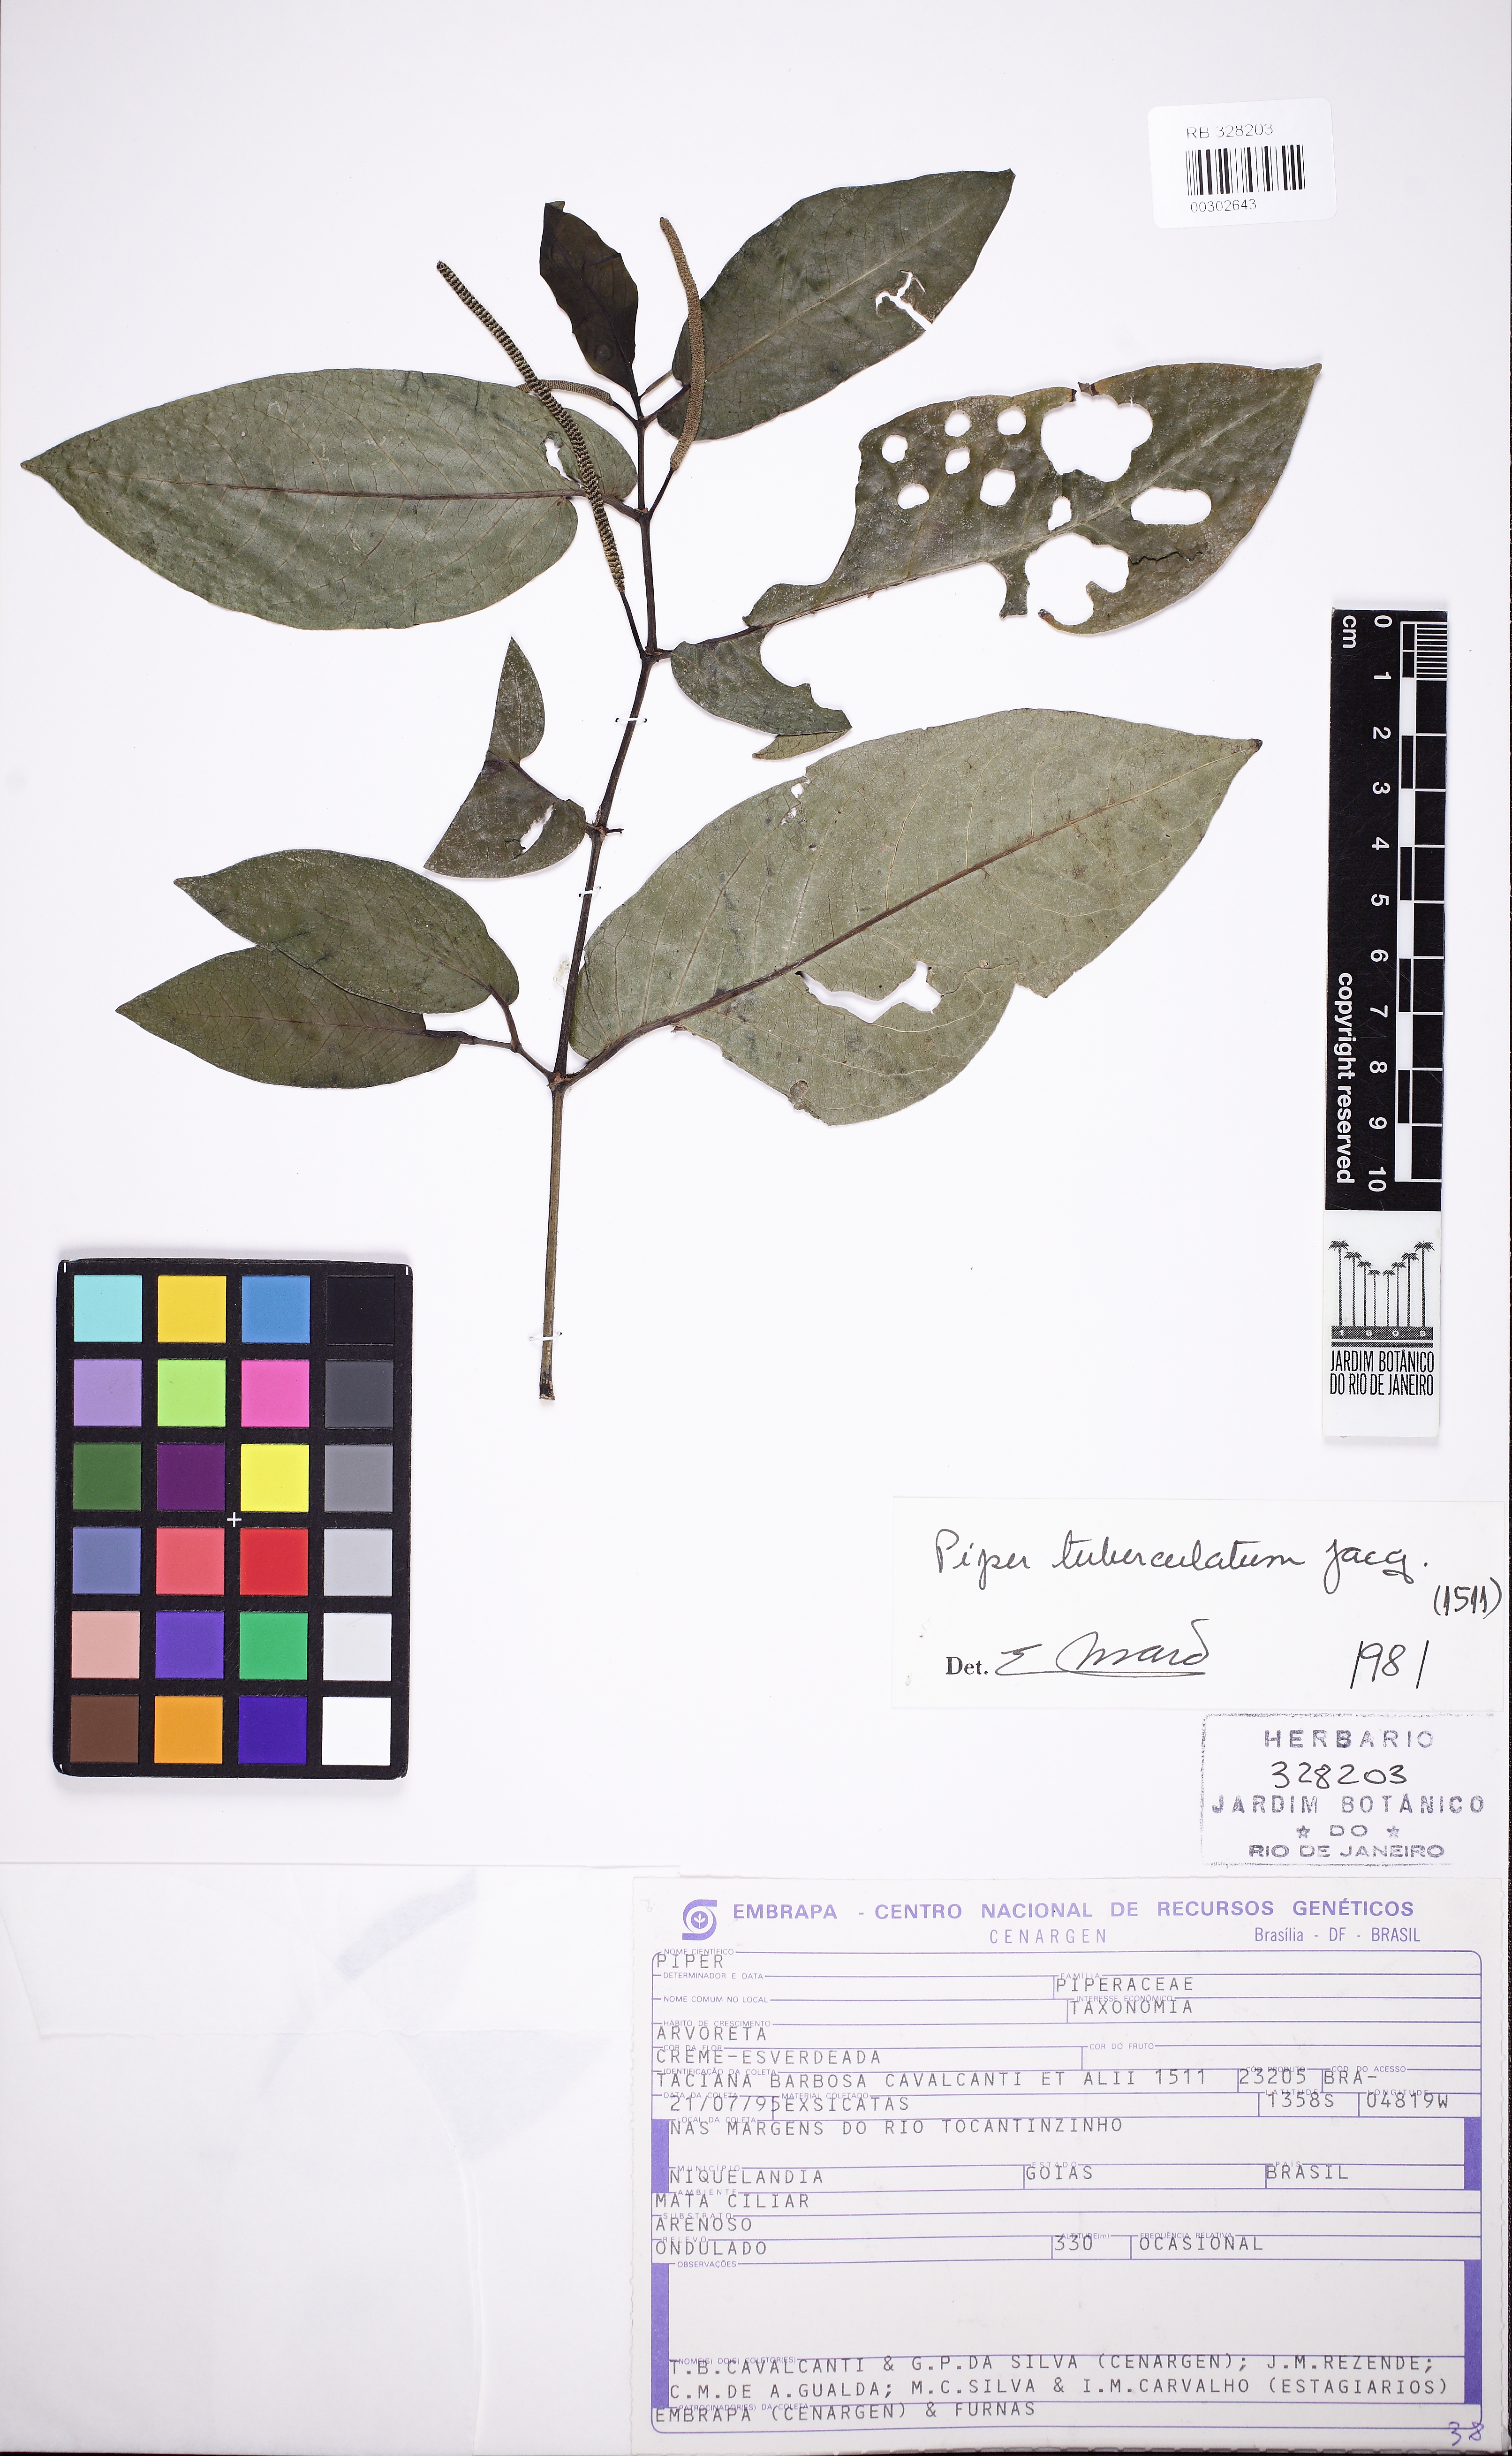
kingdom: Plantae
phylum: Tracheophyta
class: Magnoliopsida
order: Piperales
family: Piperaceae
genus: Piper
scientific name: Piper tuberculatum
